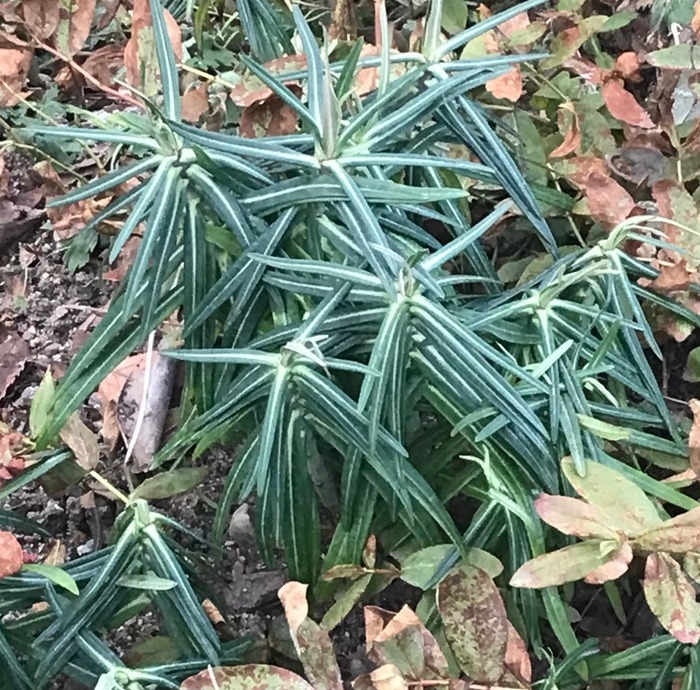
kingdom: Plantae
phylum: Tracheophyta
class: Magnoliopsida
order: Malpighiales
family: Euphorbiaceae
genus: Euphorbia
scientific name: Euphorbia lathyris
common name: Kors-vortemælk
